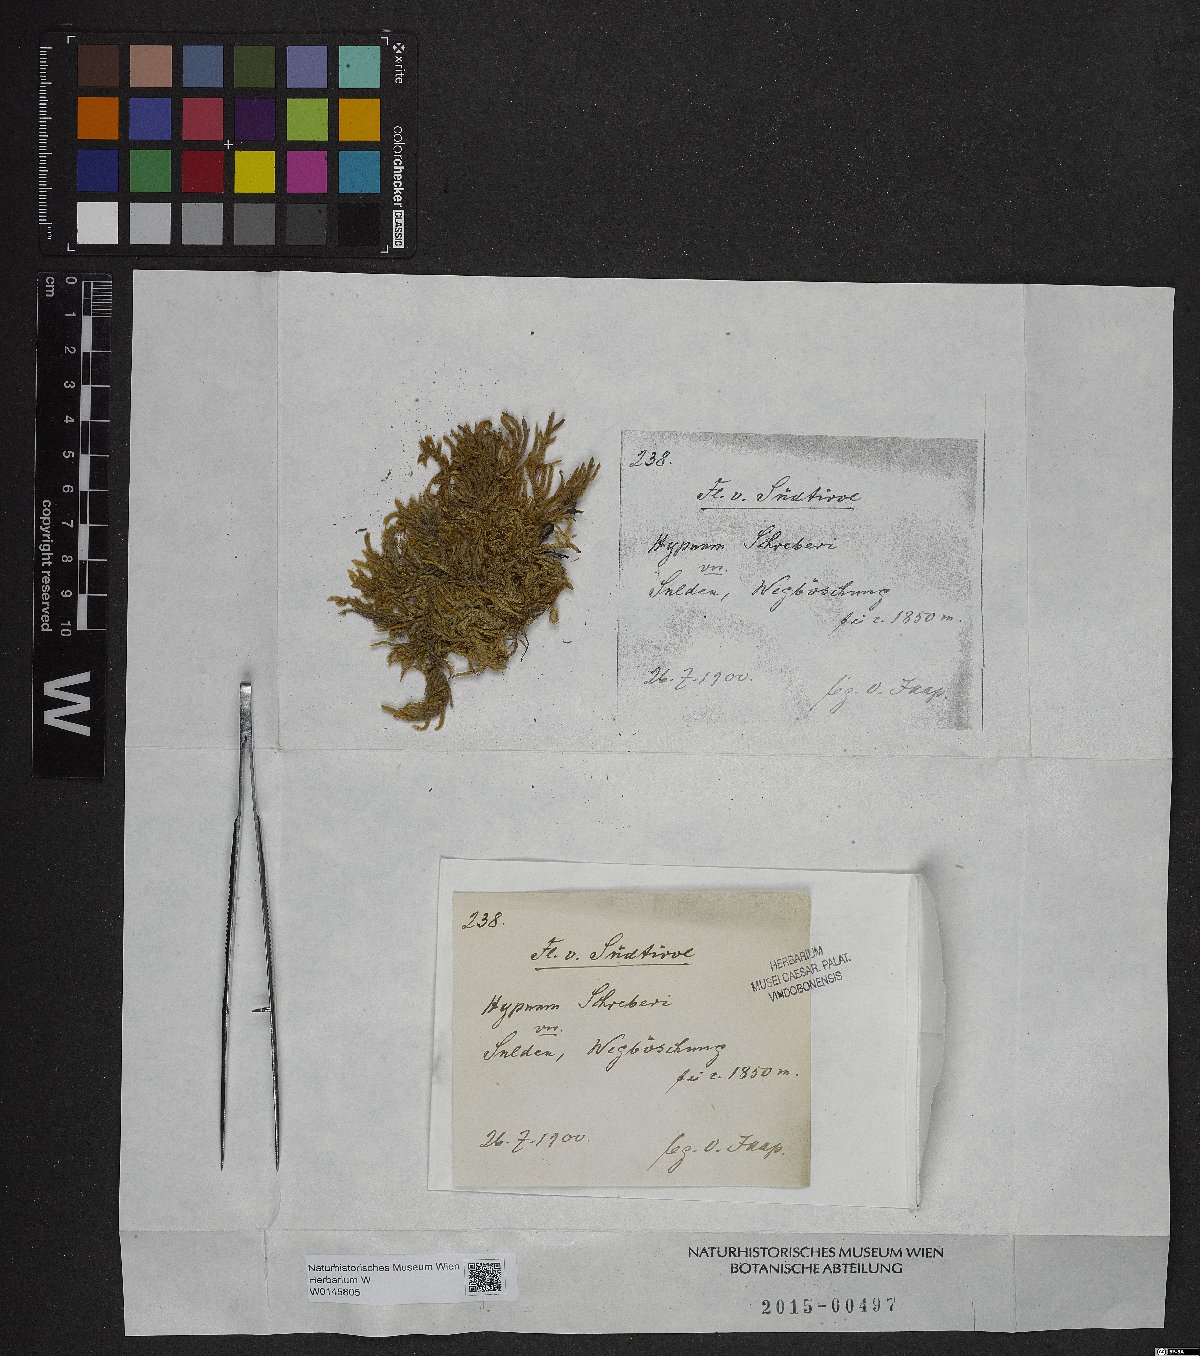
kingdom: Plantae
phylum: Bryophyta
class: Bryopsida
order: Hypnales
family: Hylocomiaceae
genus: Pleurozium
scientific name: Pleurozium schreberi
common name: Red-stemmed feather moss
